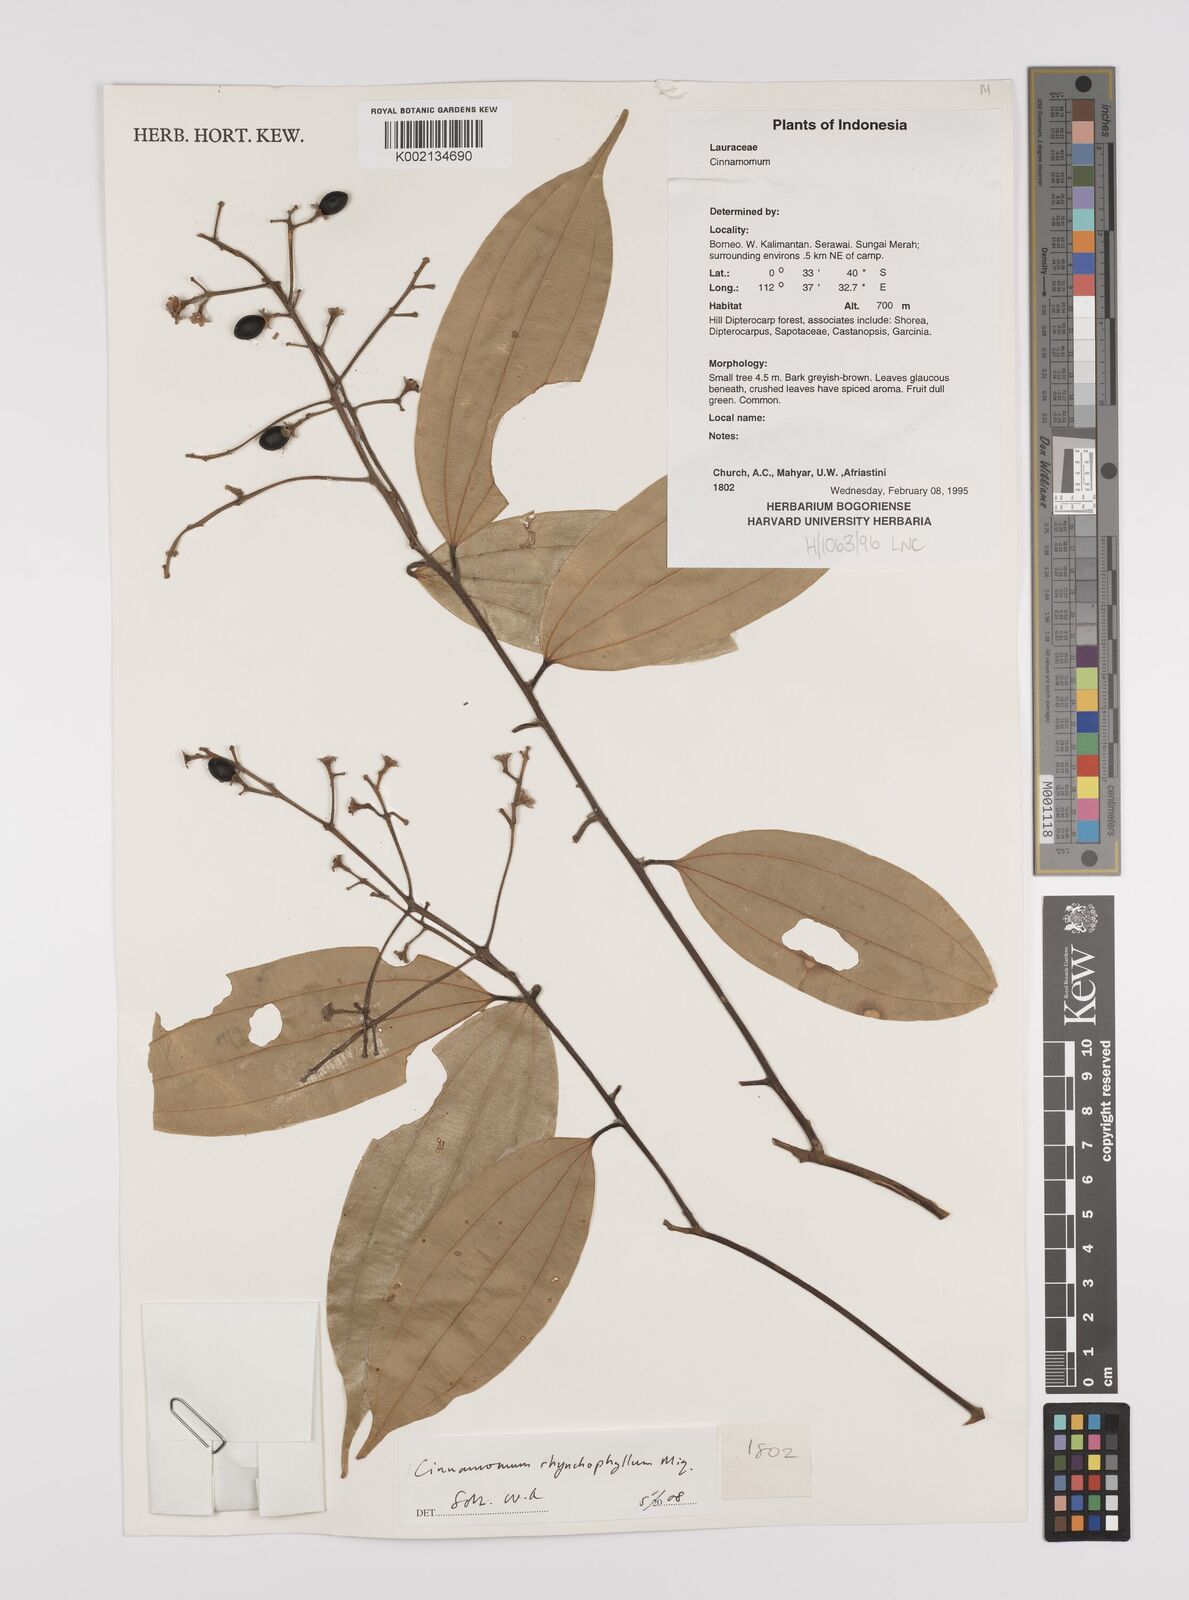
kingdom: Plantae
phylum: Tracheophyta
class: Magnoliopsida
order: Laurales
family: Lauraceae
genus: Cinnamomum
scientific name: Cinnamomum rhynchophyllum
